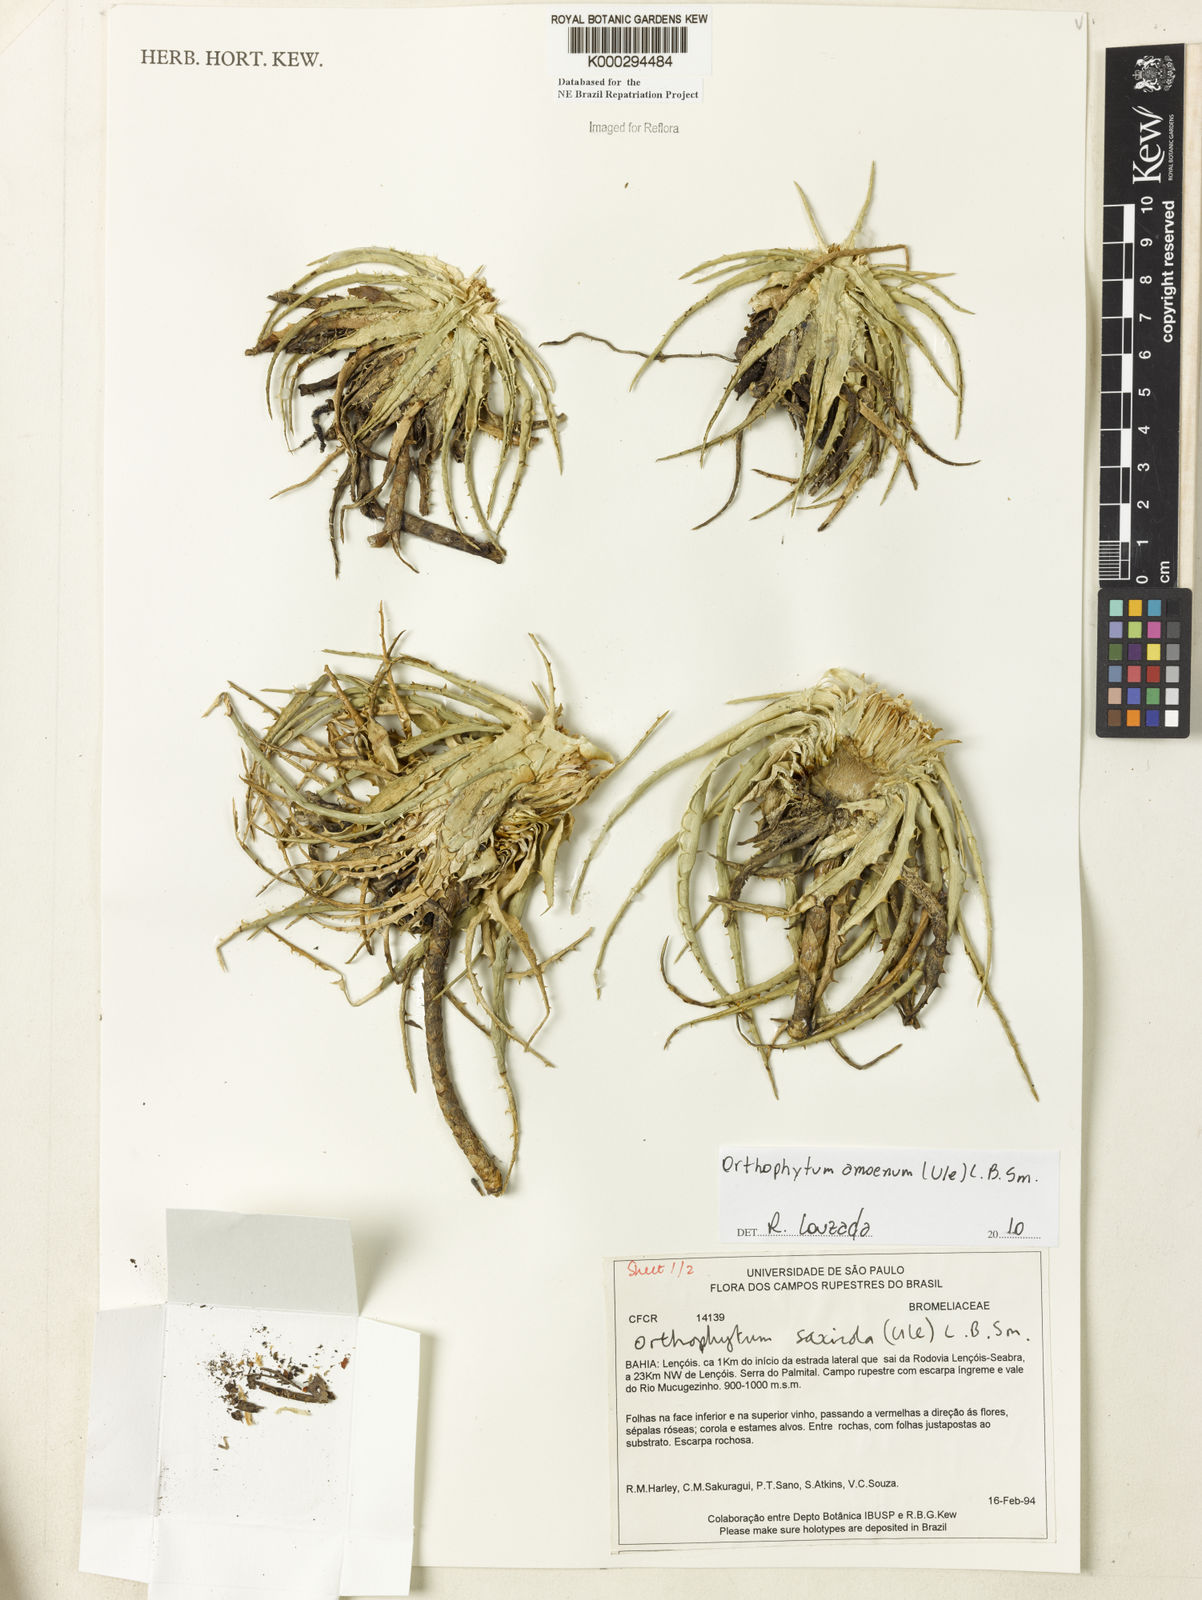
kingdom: Plantae
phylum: Tracheophyta
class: Liliopsida
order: Poales
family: Bromeliaceae
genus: Orthophytum
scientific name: Orthophytum saxicola
